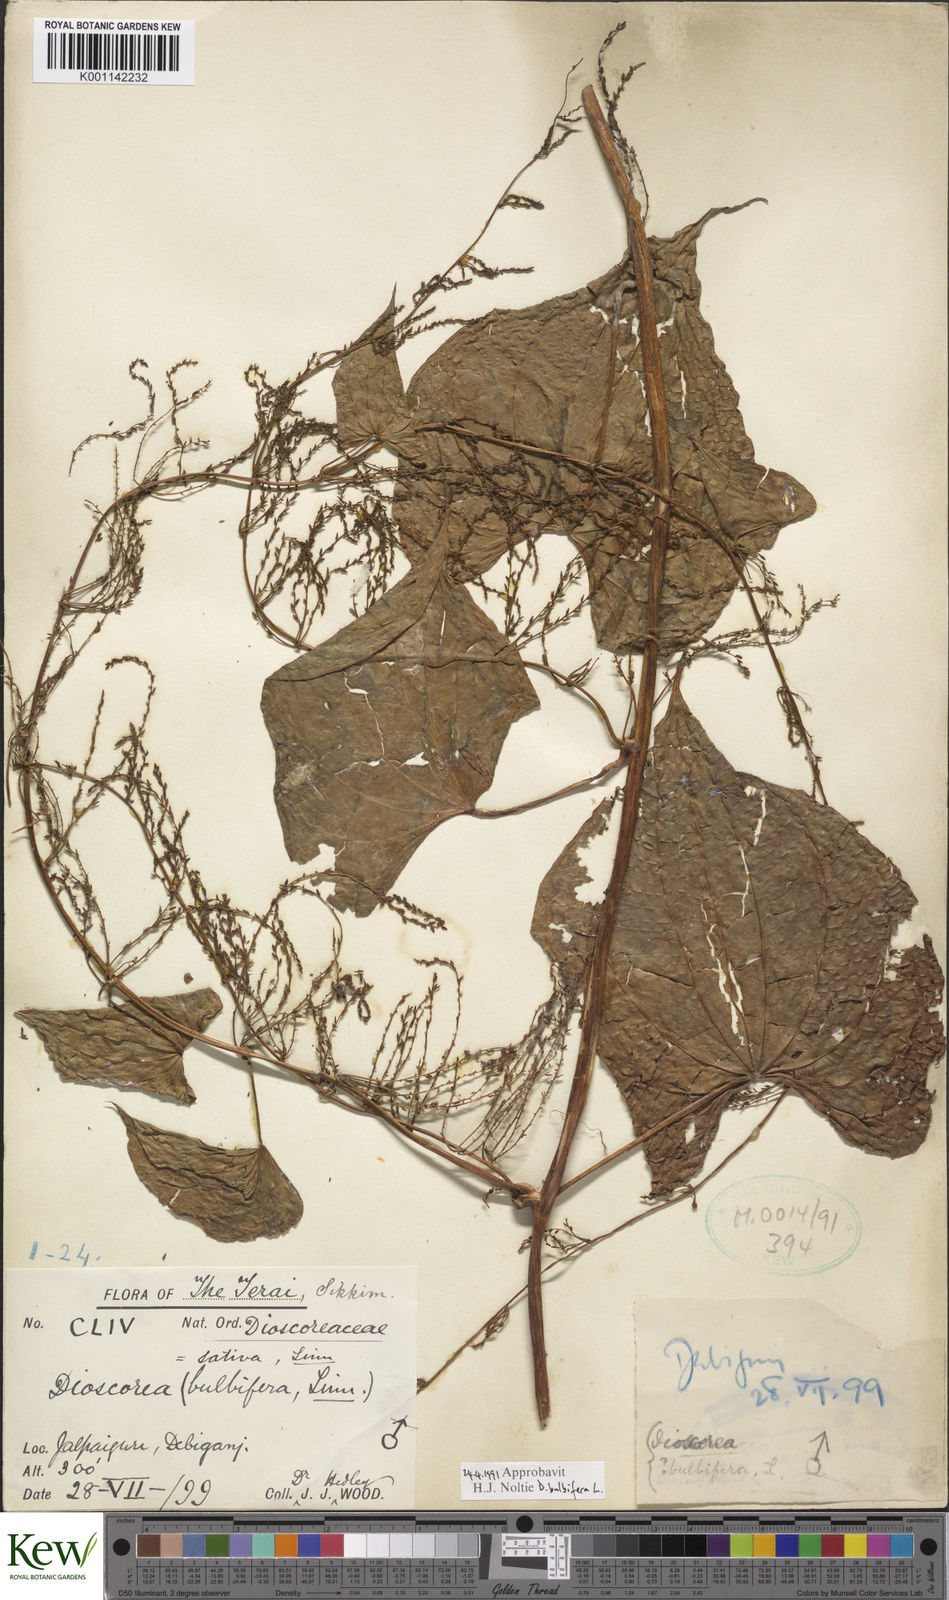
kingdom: Plantae
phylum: Tracheophyta
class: Liliopsida
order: Dioscoreales
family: Dioscoreaceae
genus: Dioscorea
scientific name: Dioscorea bulbifera
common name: Air yam
